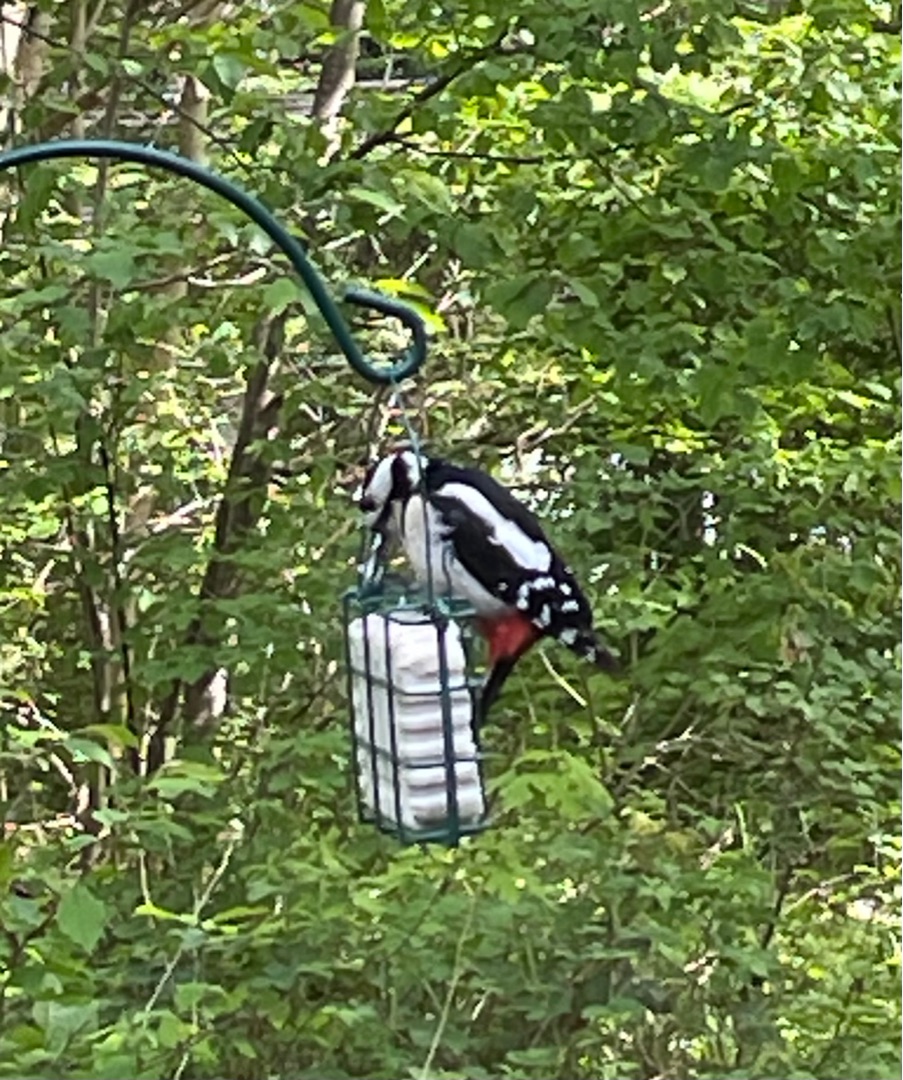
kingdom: Animalia
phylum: Chordata
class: Aves
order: Piciformes
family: Picidae
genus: Dendrocopos
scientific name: Dendrocopos major
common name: Stor flagspætte
